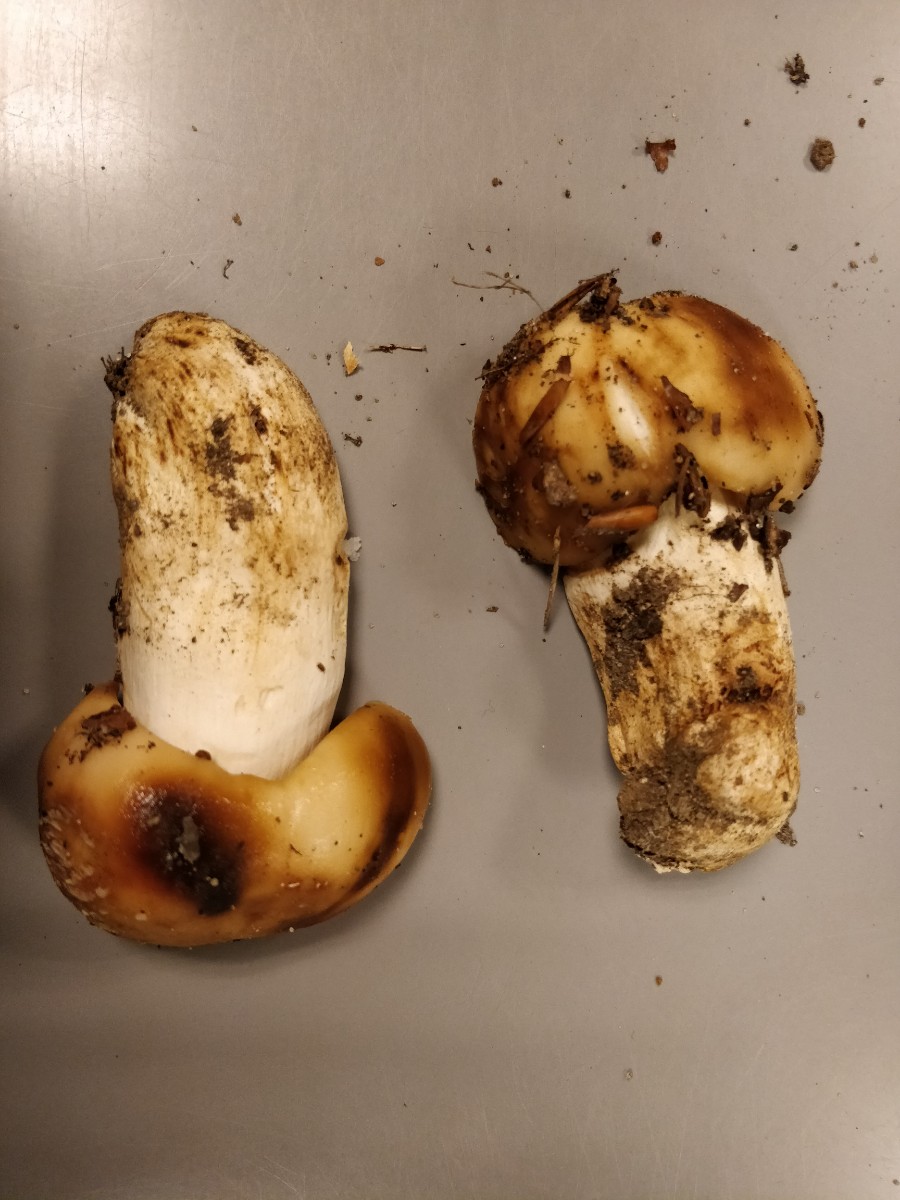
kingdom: Fungi
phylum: Basidiomycota
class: Agaricomycetes
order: Russulales
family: Russulaceae
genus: Russula
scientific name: Russula foetens
